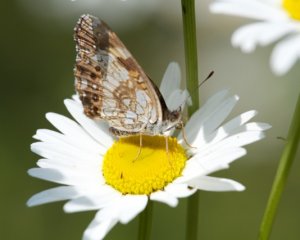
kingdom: Animalia
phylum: Arthropoda
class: Insecta
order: Lepidoptera
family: Nymphalidae
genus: Chlosyne
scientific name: Chlosyne nycteis
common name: Silvery Checkerspot
